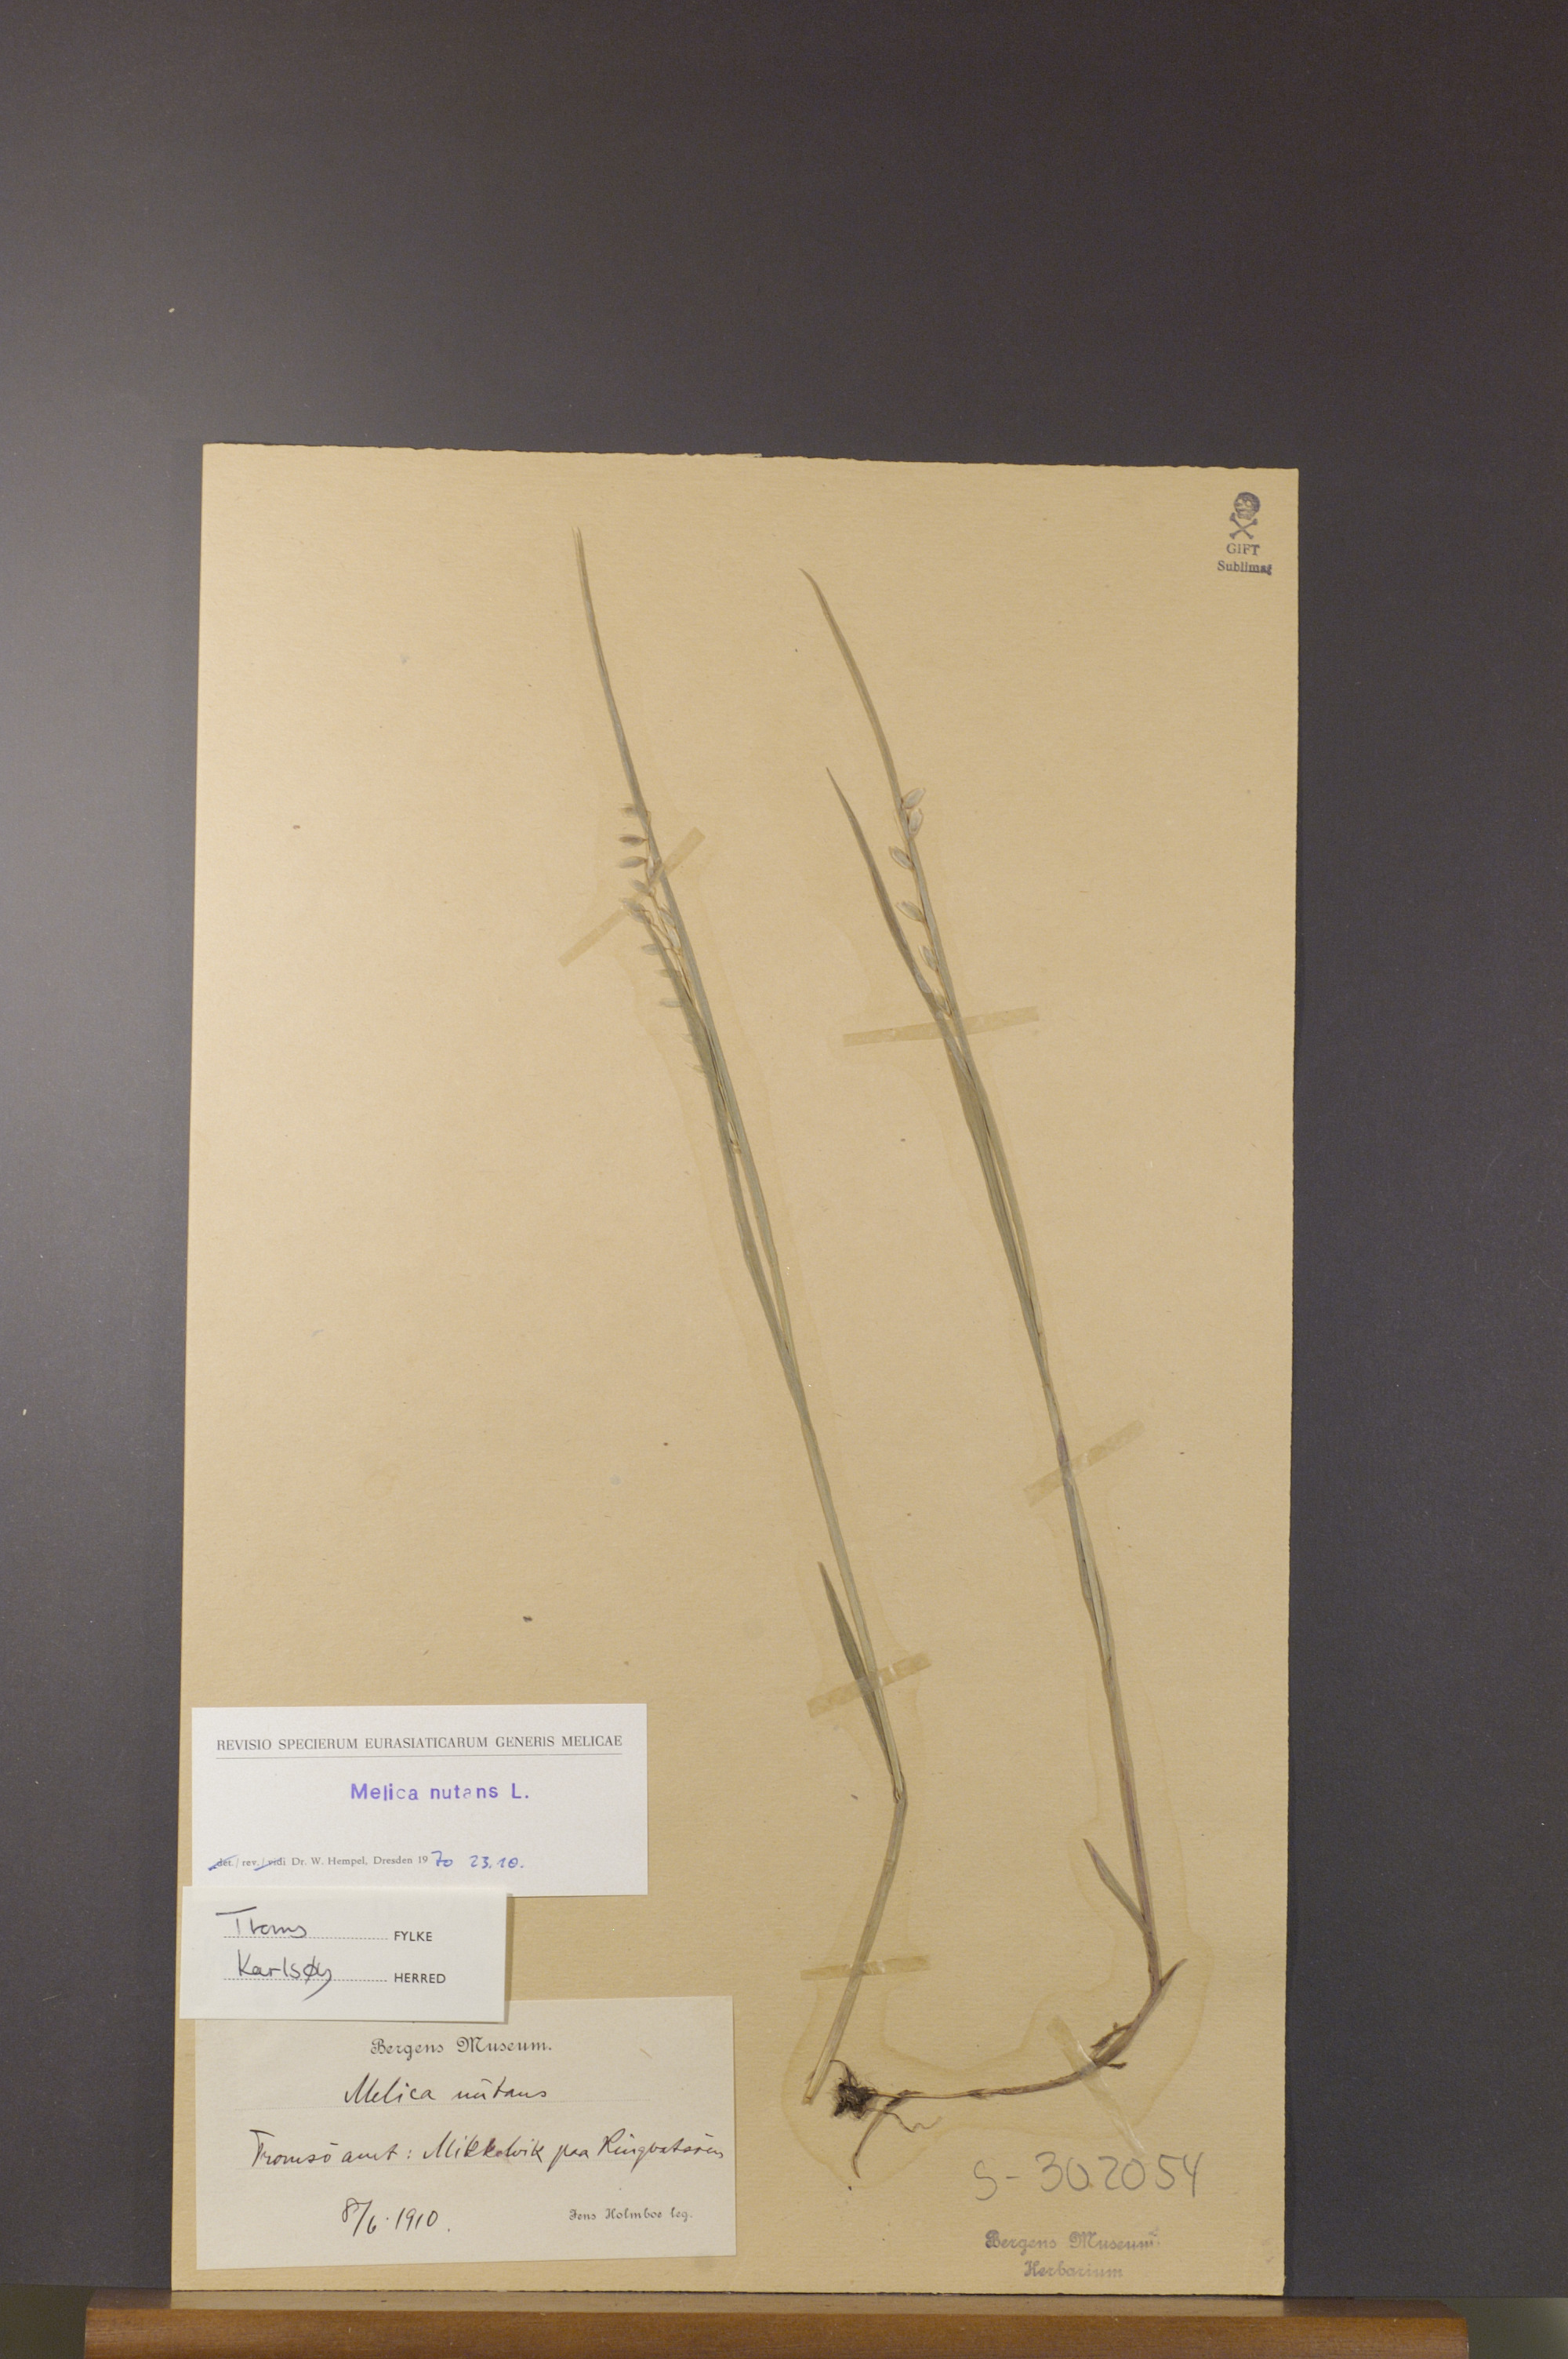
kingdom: Plantae
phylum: Tracheophyta
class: Liliopsida
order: Poales
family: Poaceae
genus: Melica
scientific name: Melica nutans
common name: Mountain melick
